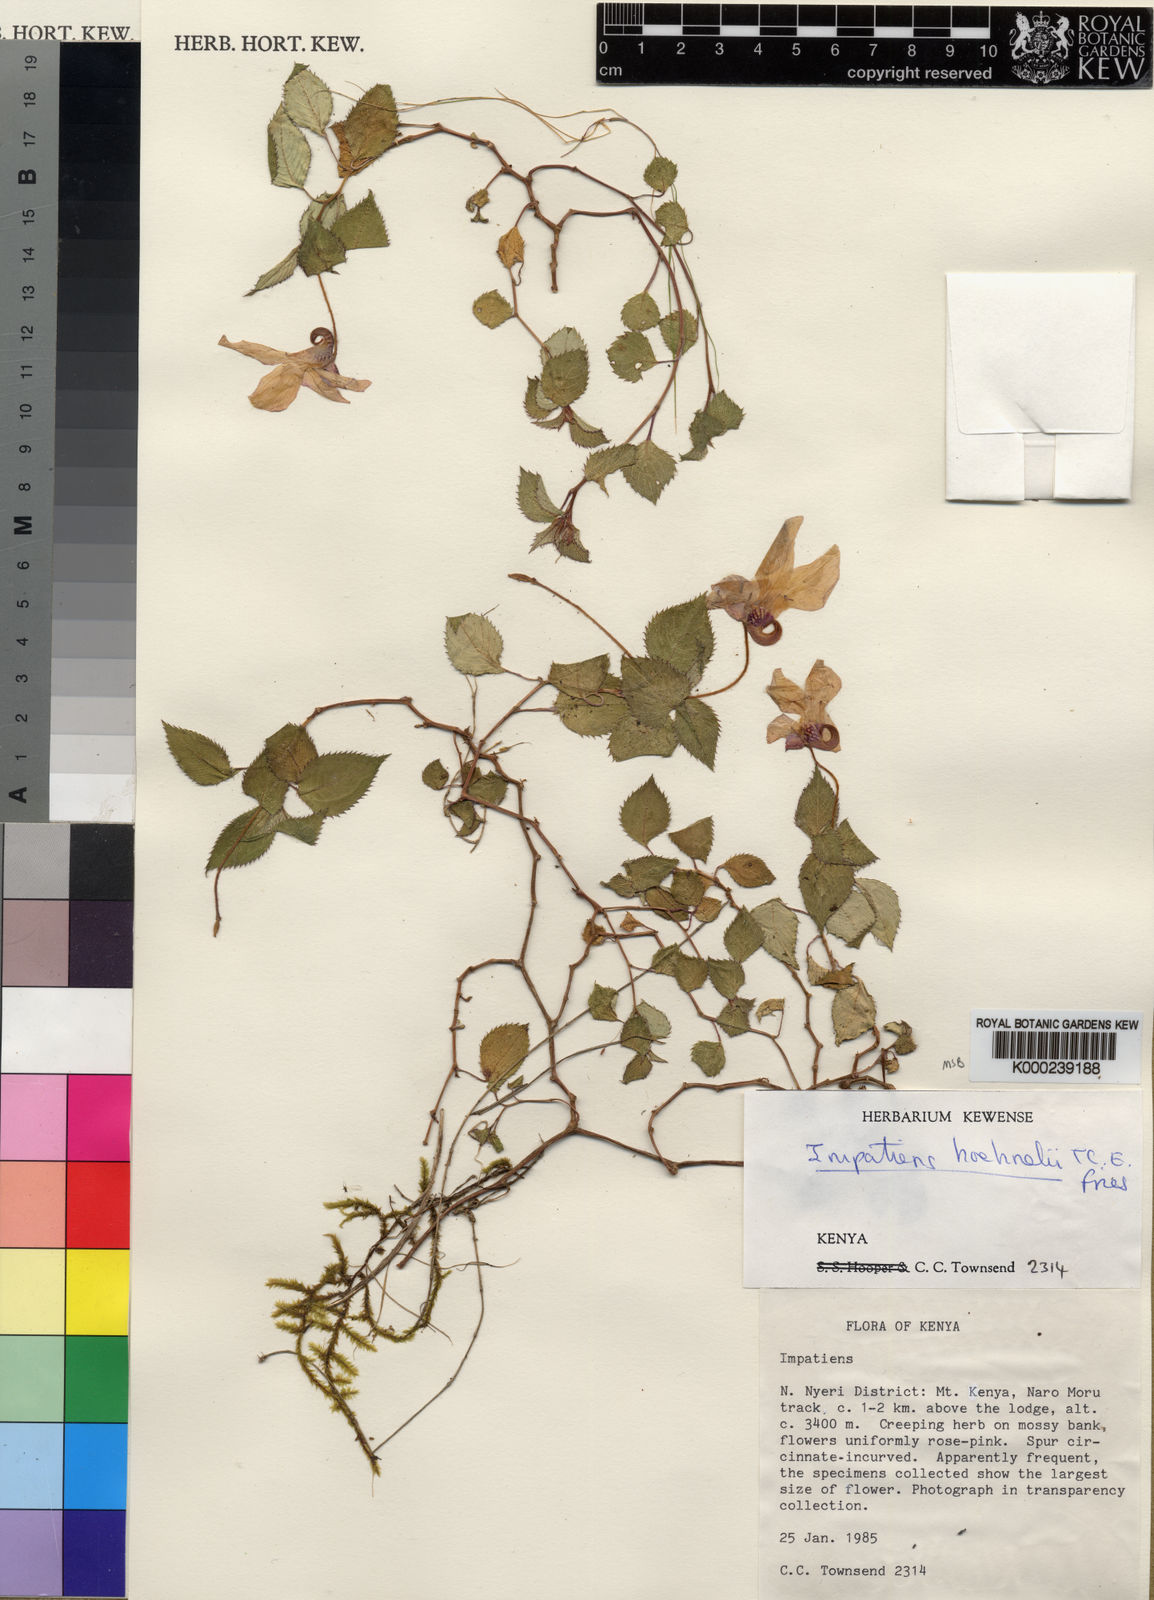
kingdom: Plantae
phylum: Tracheophyta
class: Magnoliopsida
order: Ericales
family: Balsaminaceae
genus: Impatiens
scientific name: Impatiens hoehnelii
